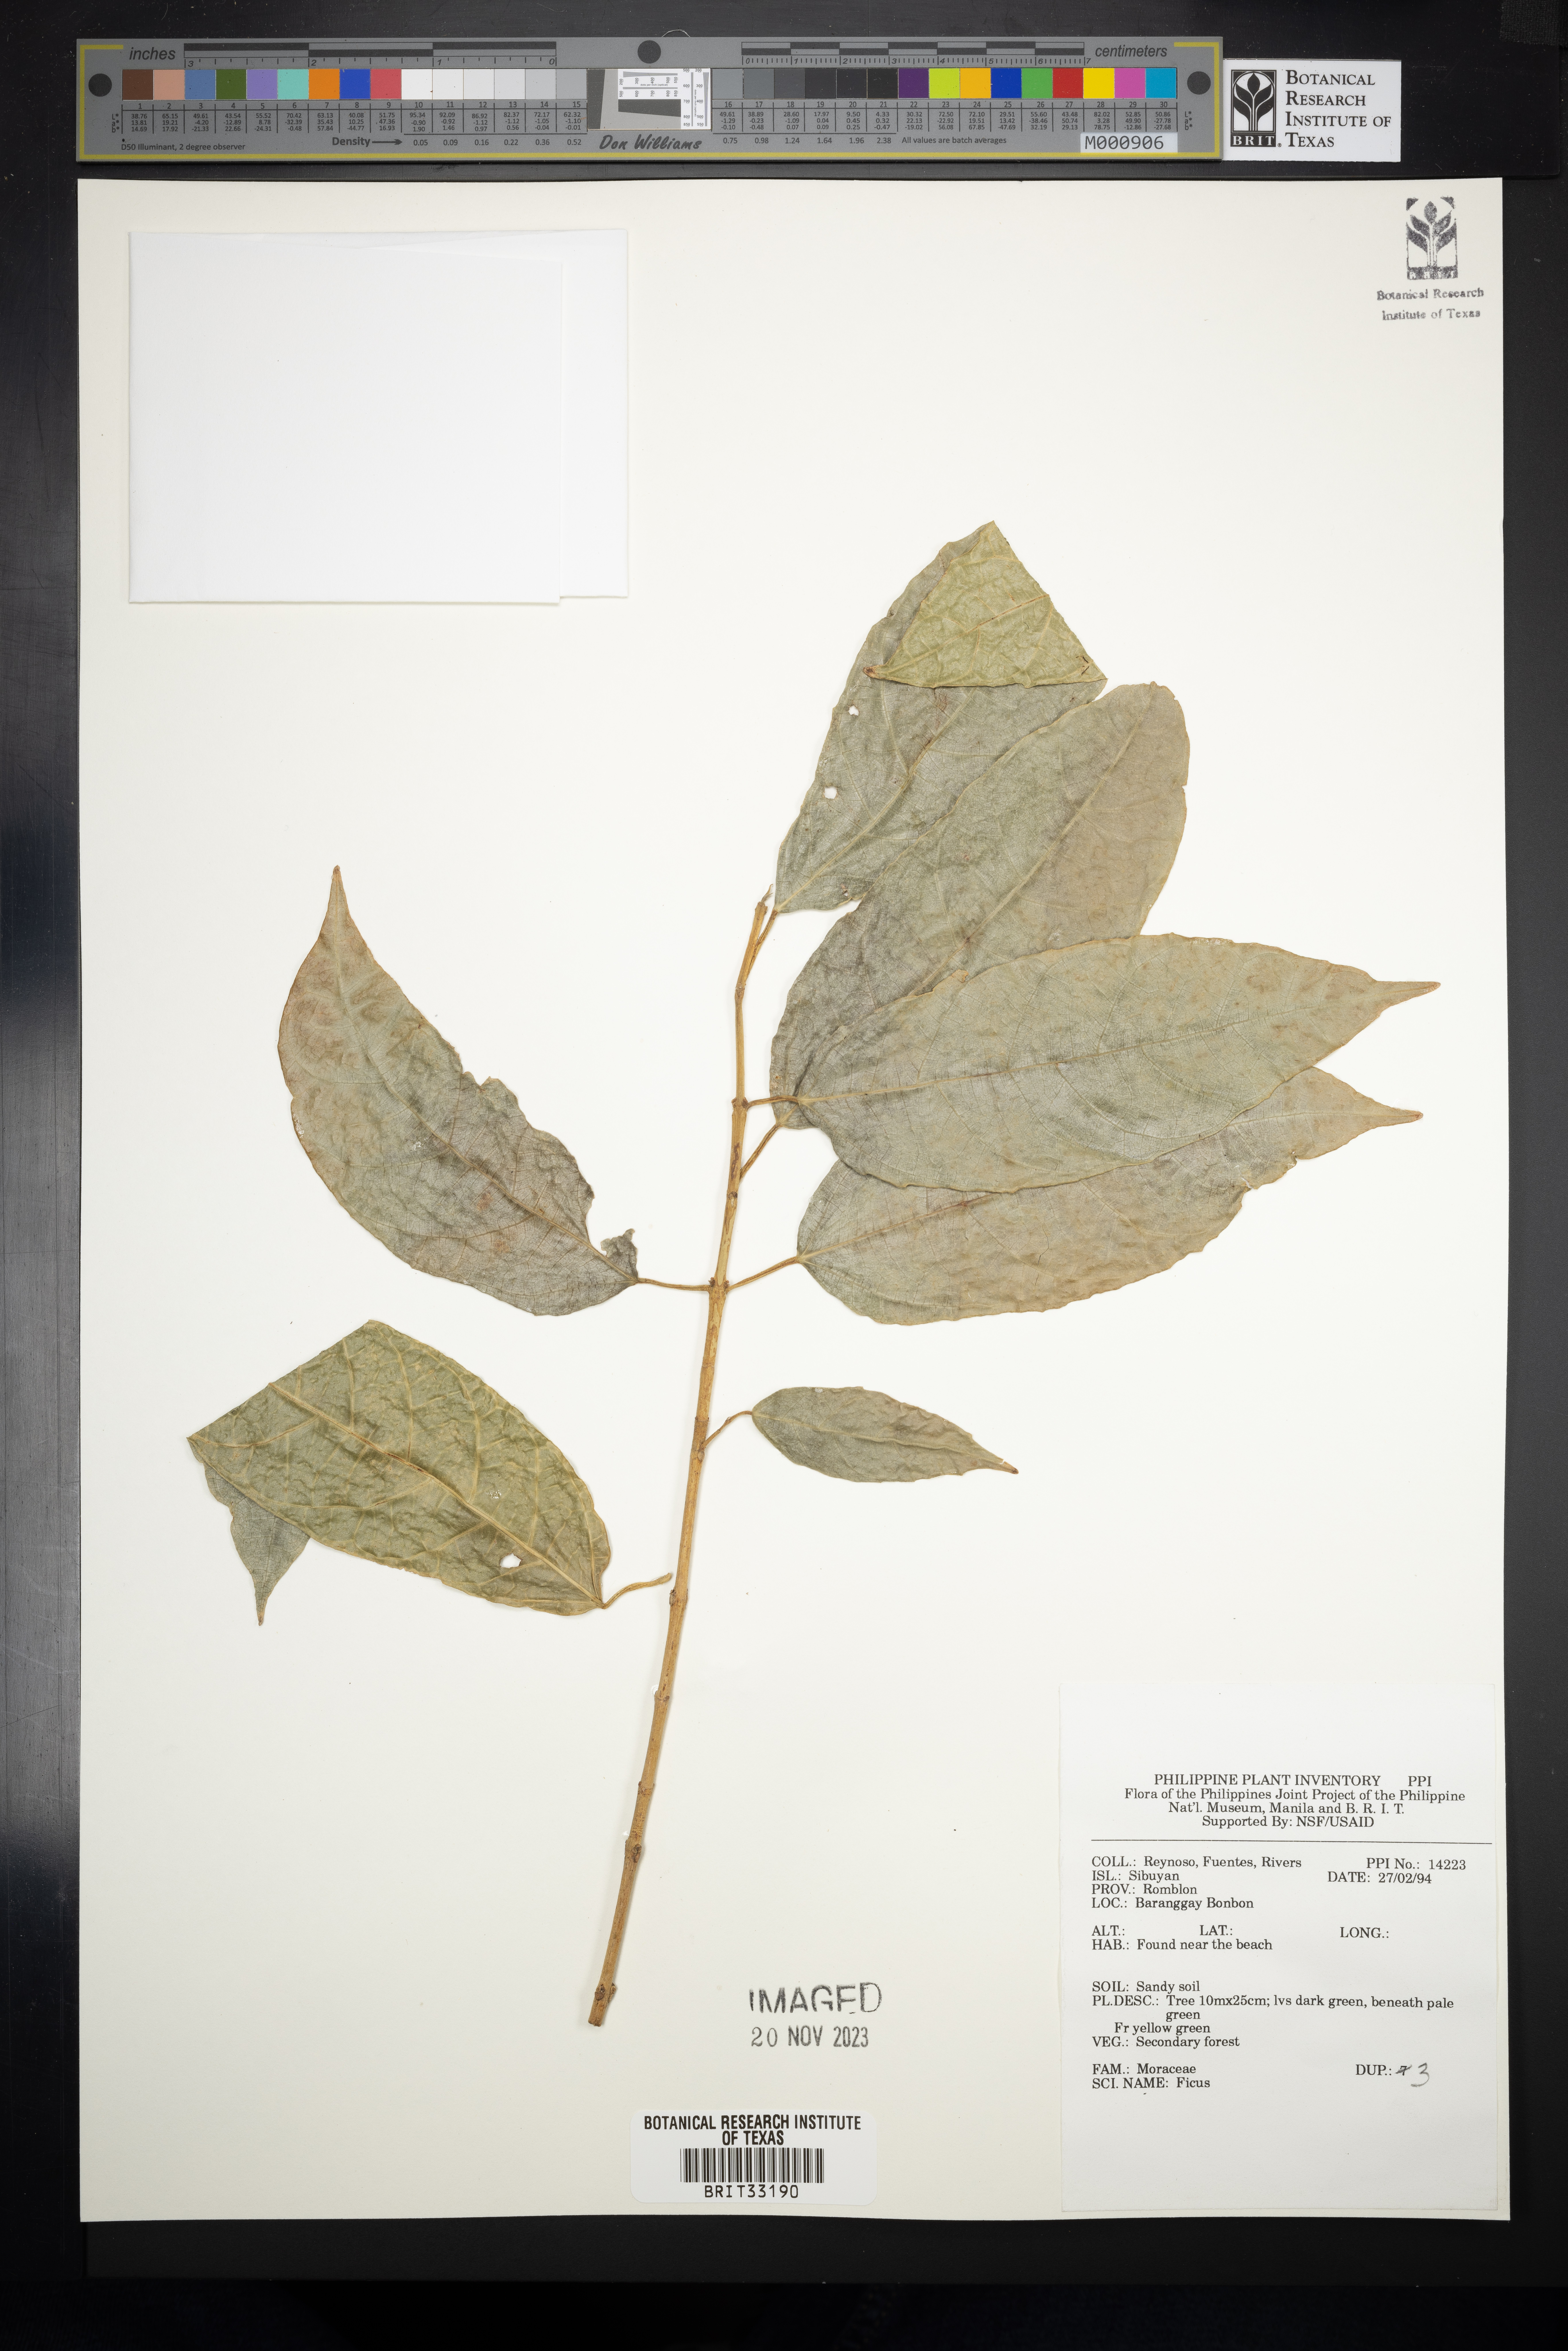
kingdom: Plantae
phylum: Tracheophyta
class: Magnoliopsida
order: Rosales
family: Moraceae
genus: Ficus
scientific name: Ficus
